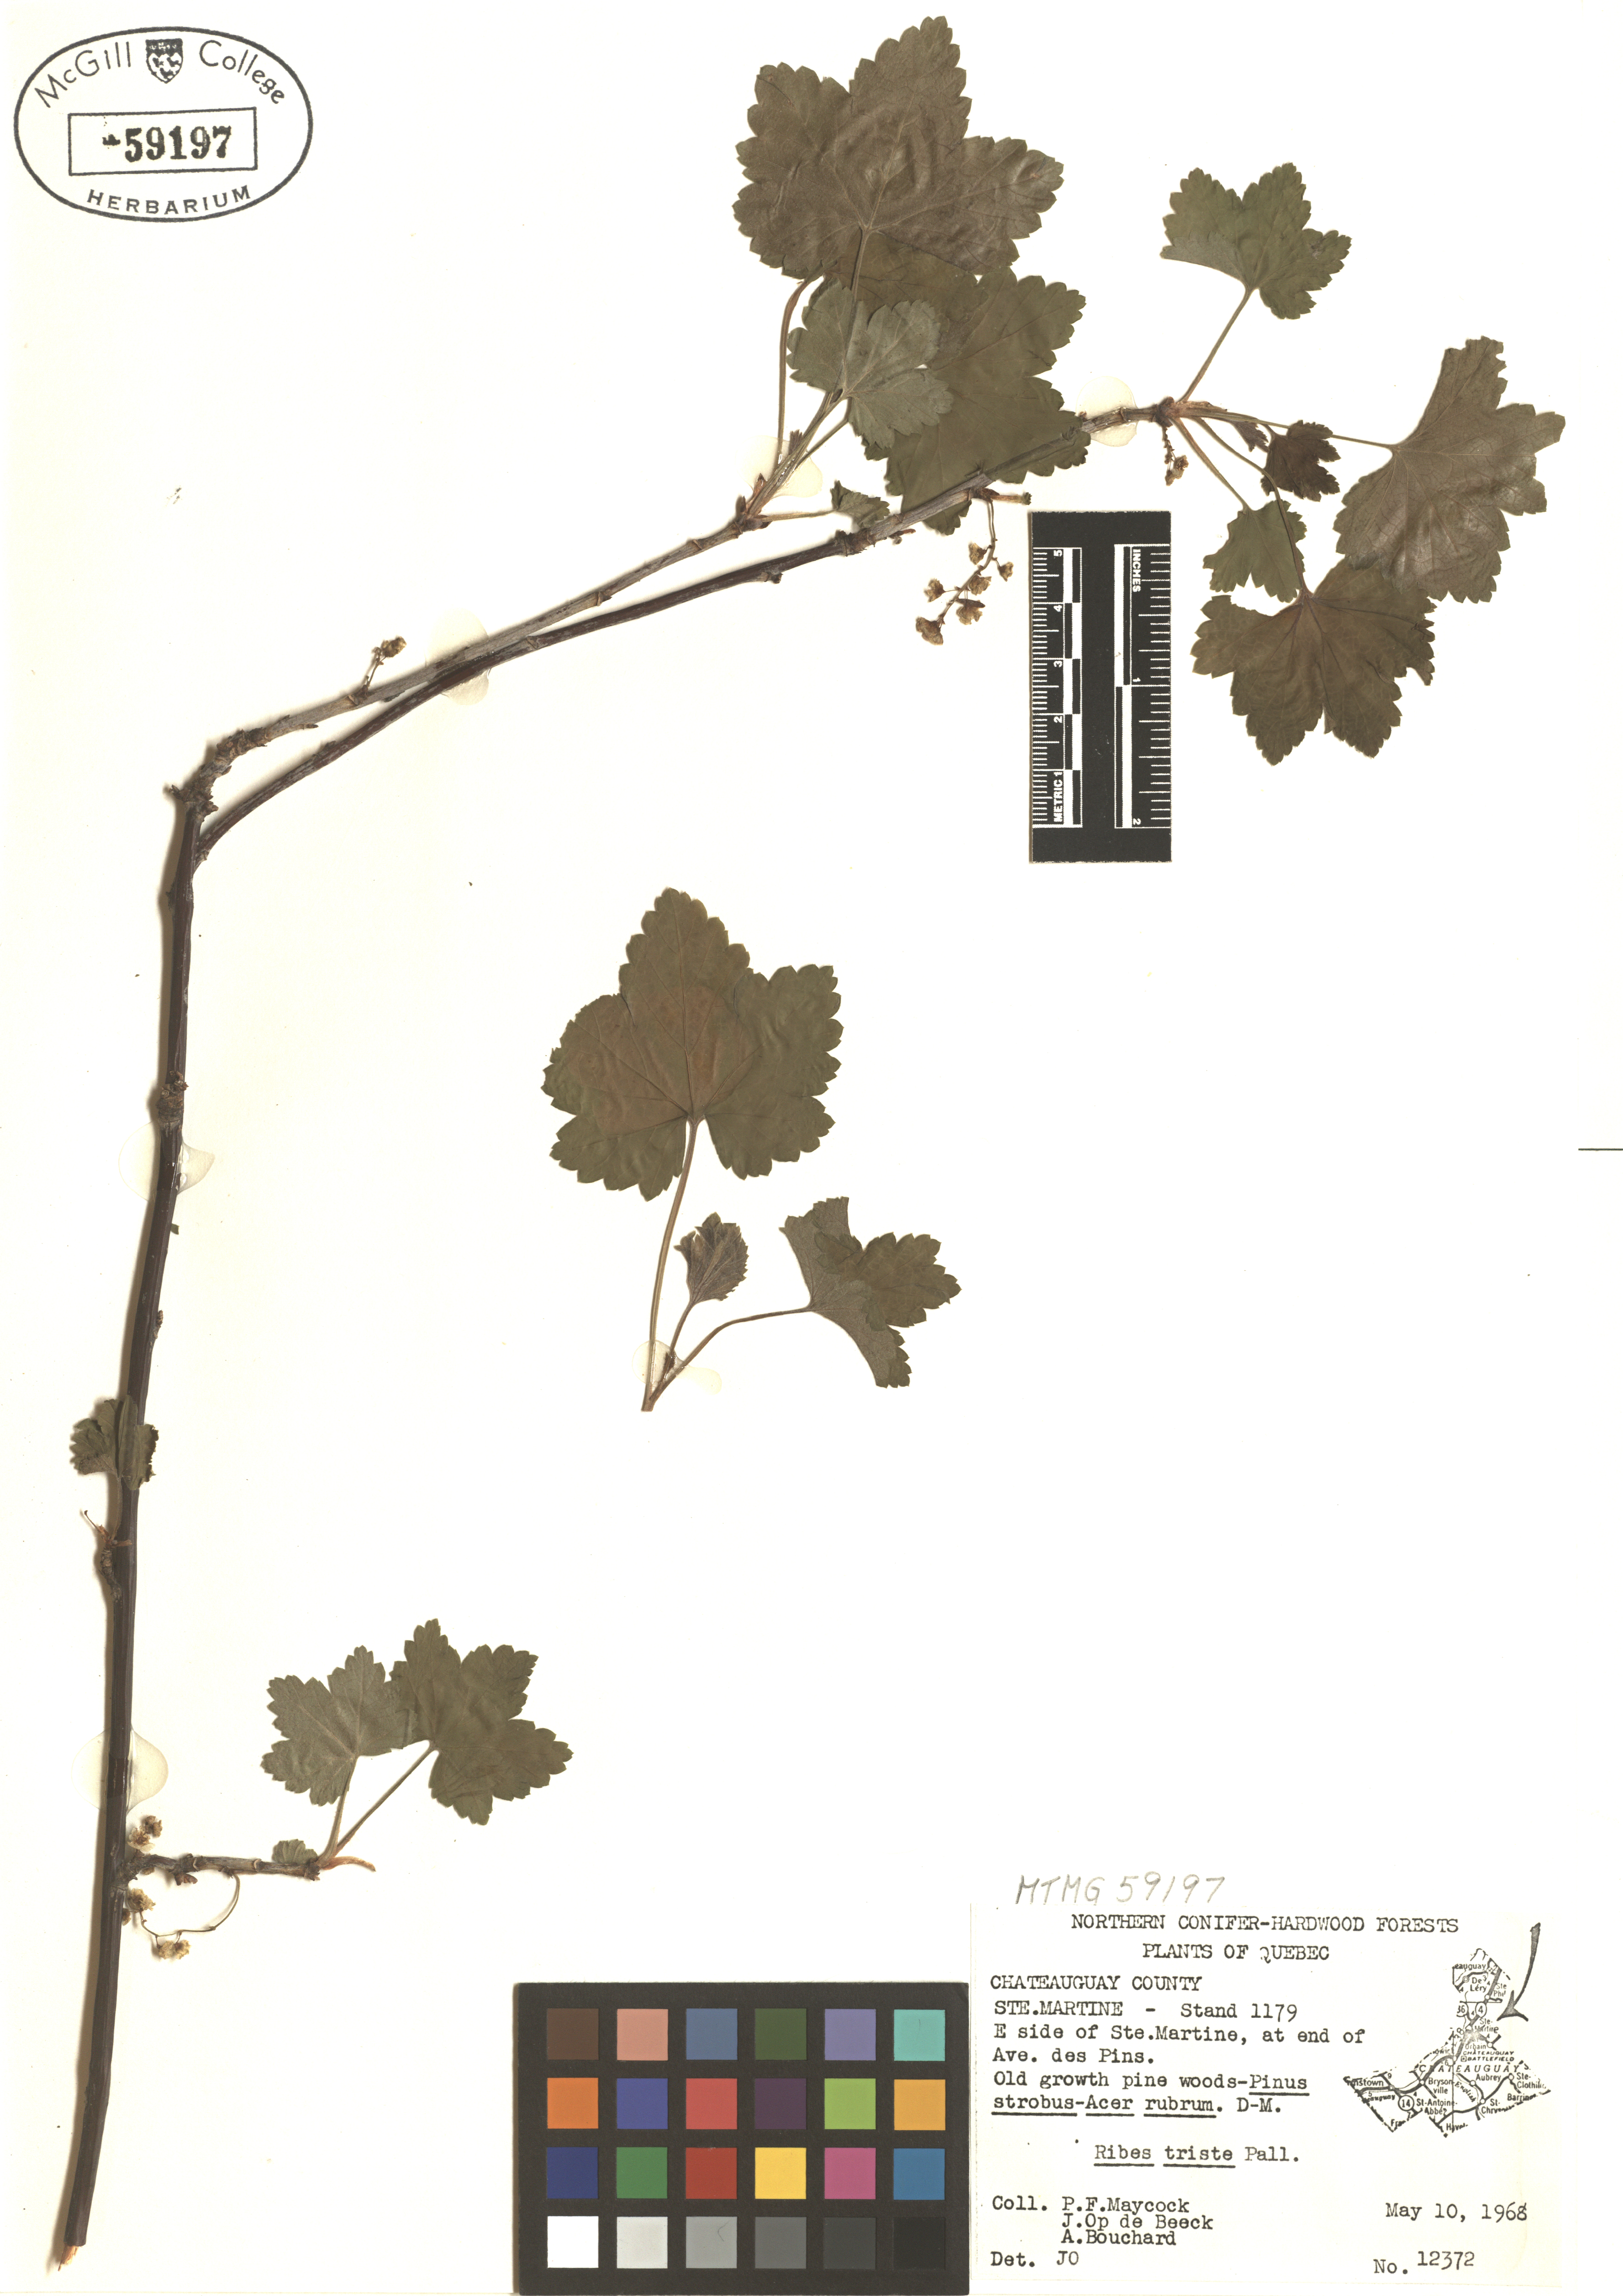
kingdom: Plantae
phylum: Tracheophyta
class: Magnoliopsida
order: Saxifragales
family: Grossulariaceae
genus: Ribes
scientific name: Ribes triste
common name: Swamp red currant
